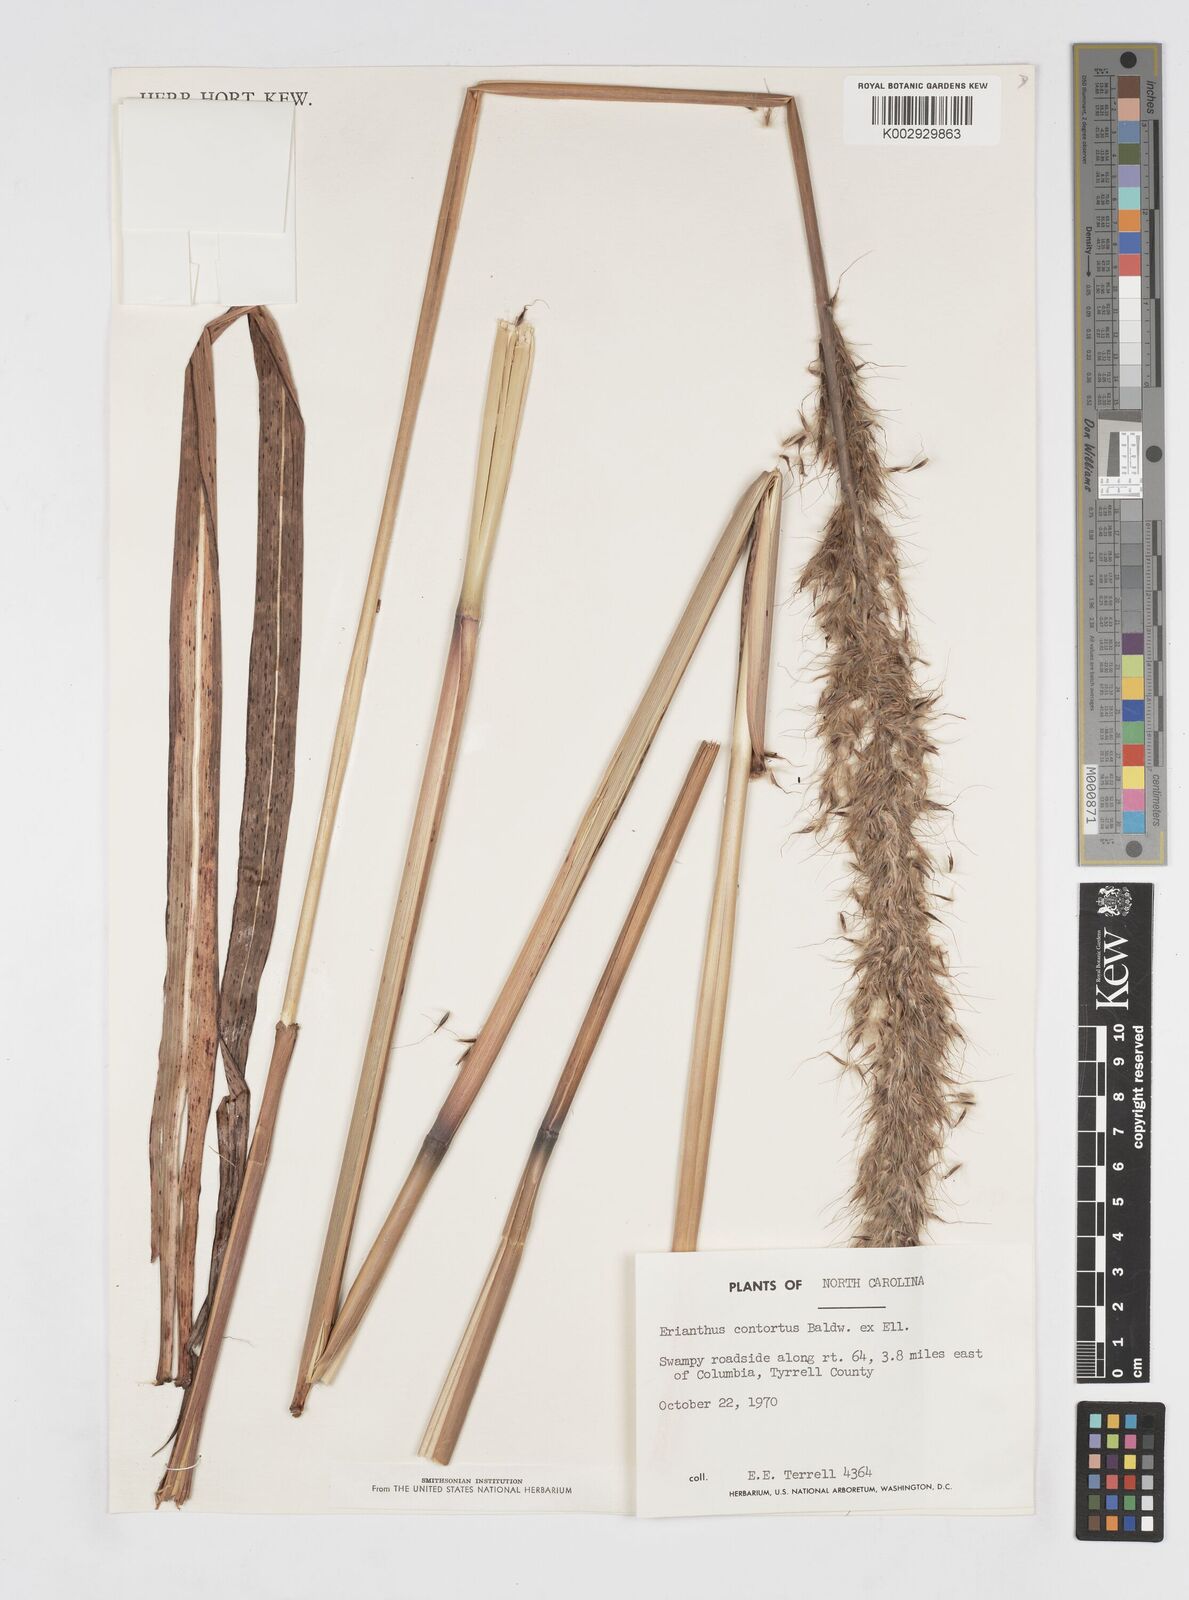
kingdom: Plantae
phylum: Tracheophyta
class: Liliopsida
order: Poales
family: Poaceae
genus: Erianthus
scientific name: Erianthus contortus
